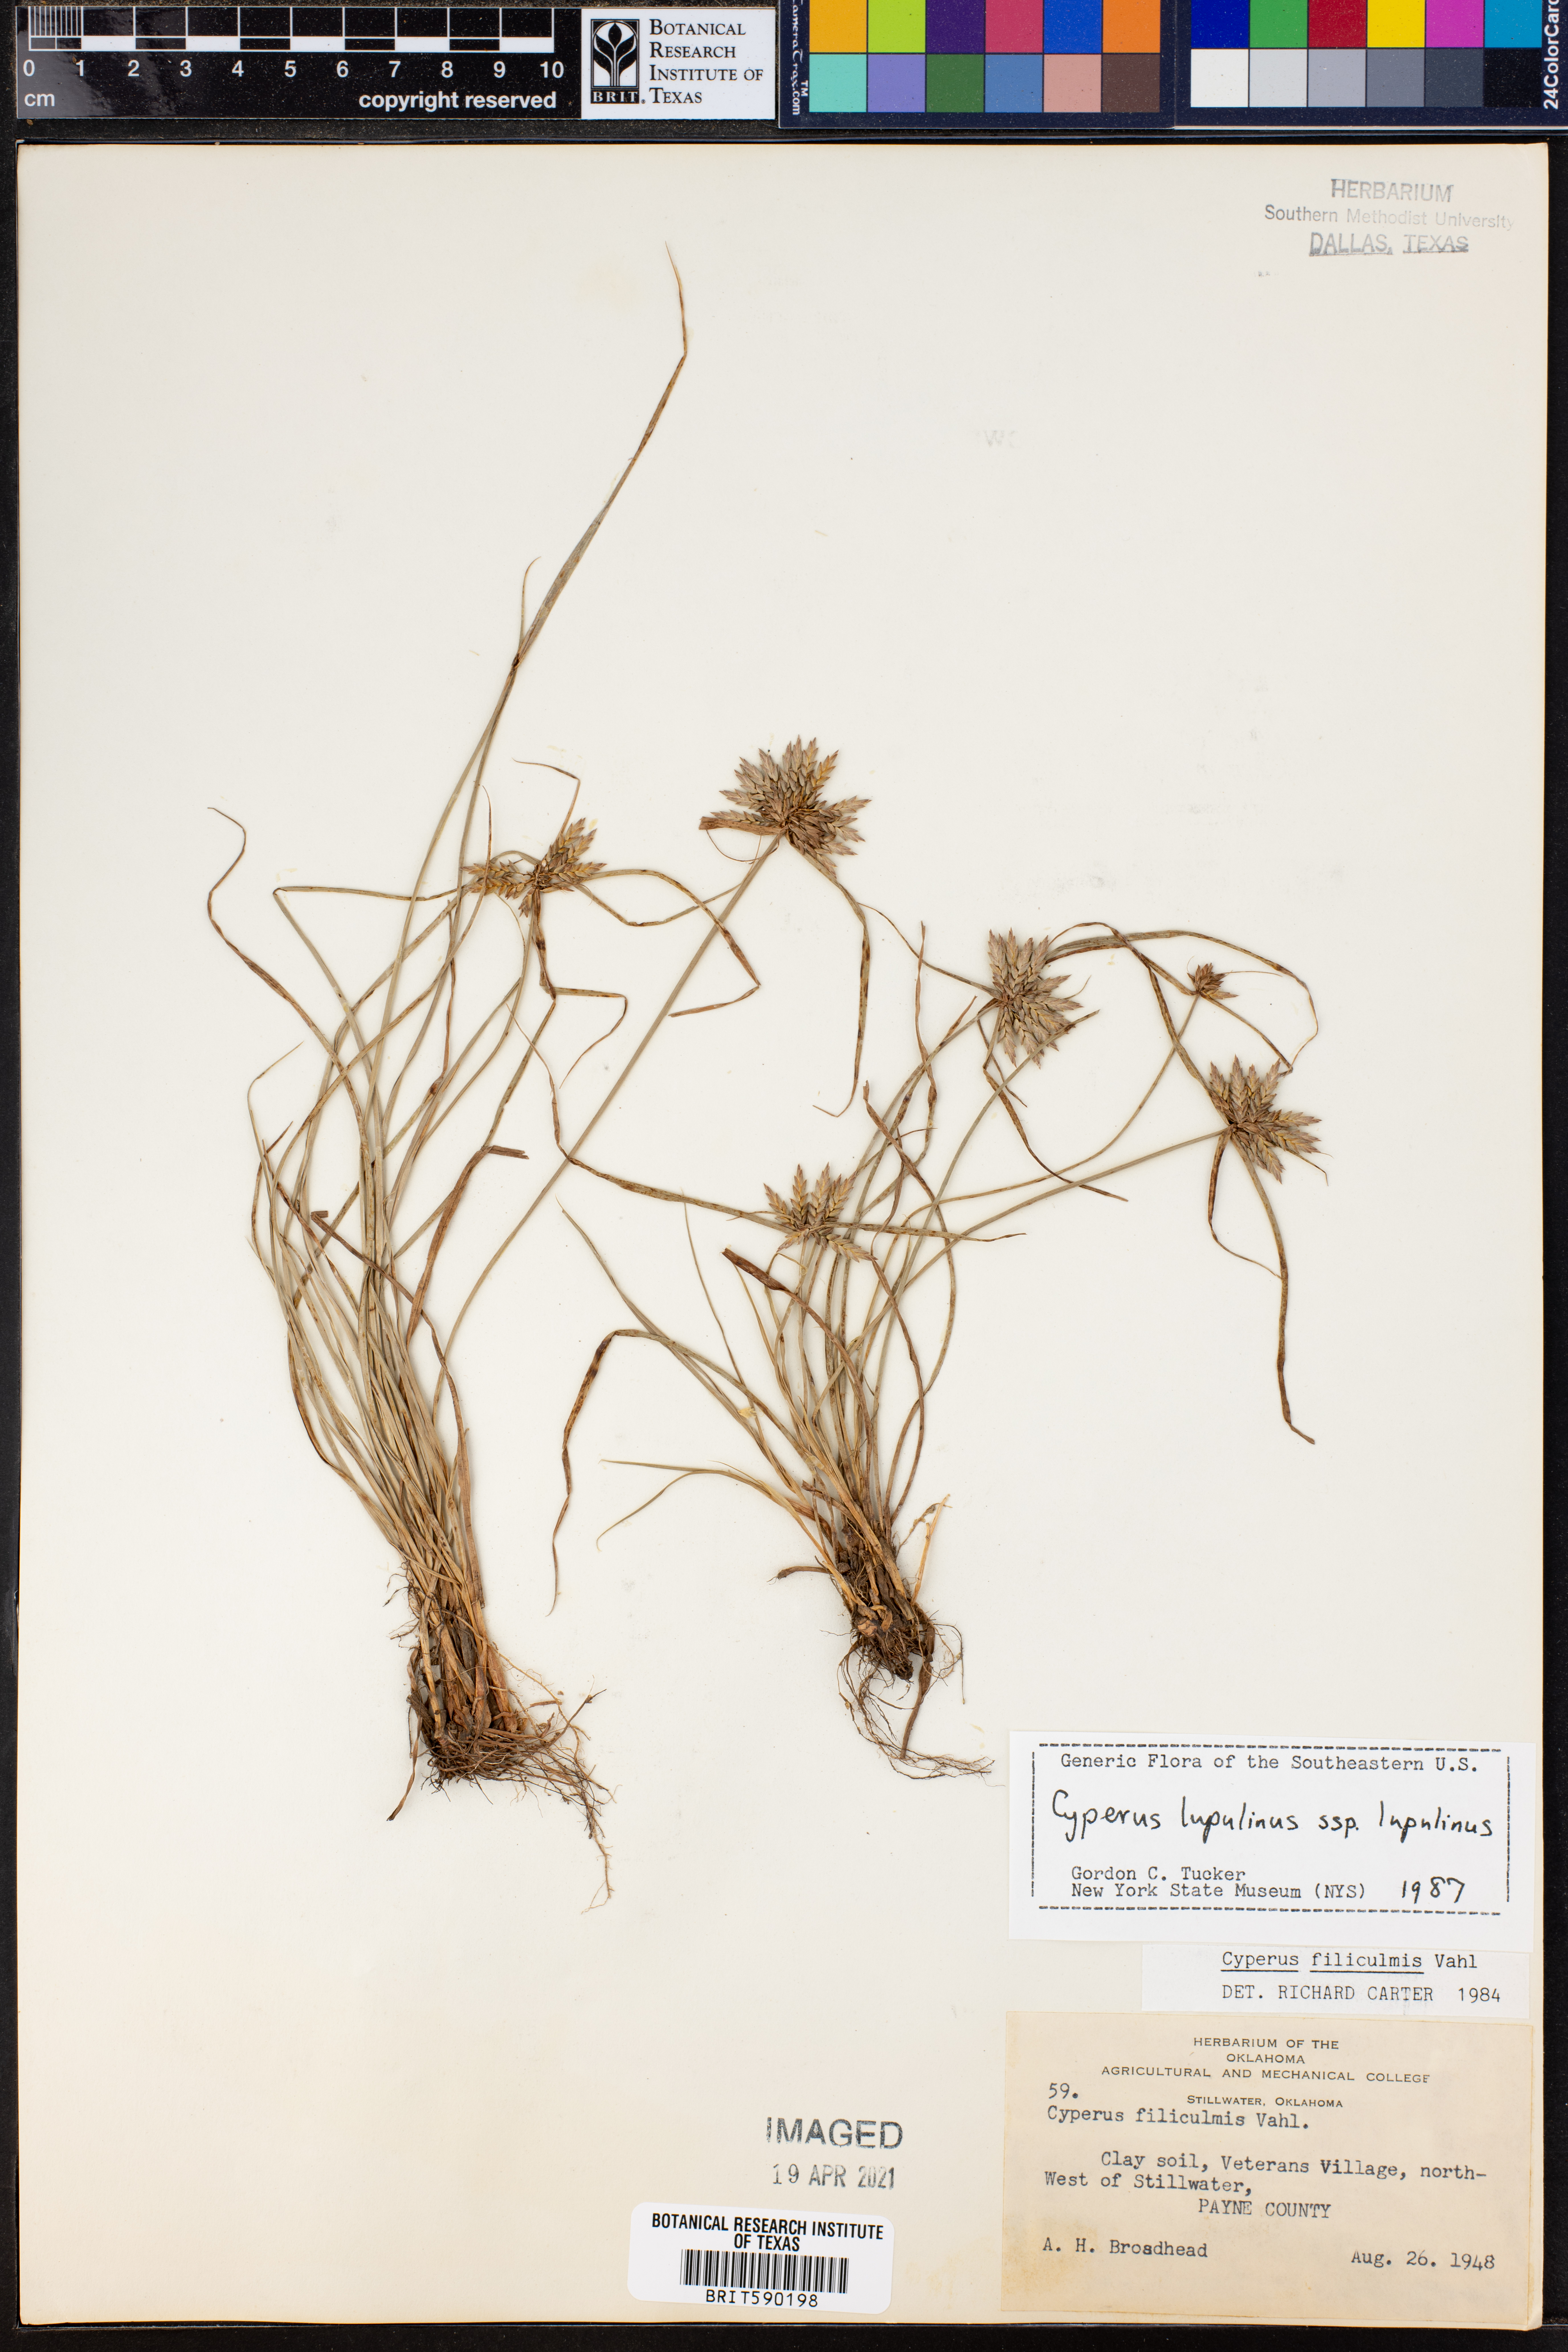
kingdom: Plantae
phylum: Tracheophyta
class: Liliopsida
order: Poales
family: Cyperaceae
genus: Cyperus
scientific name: Cyperus lupulinus
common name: Great plains flatsedge
